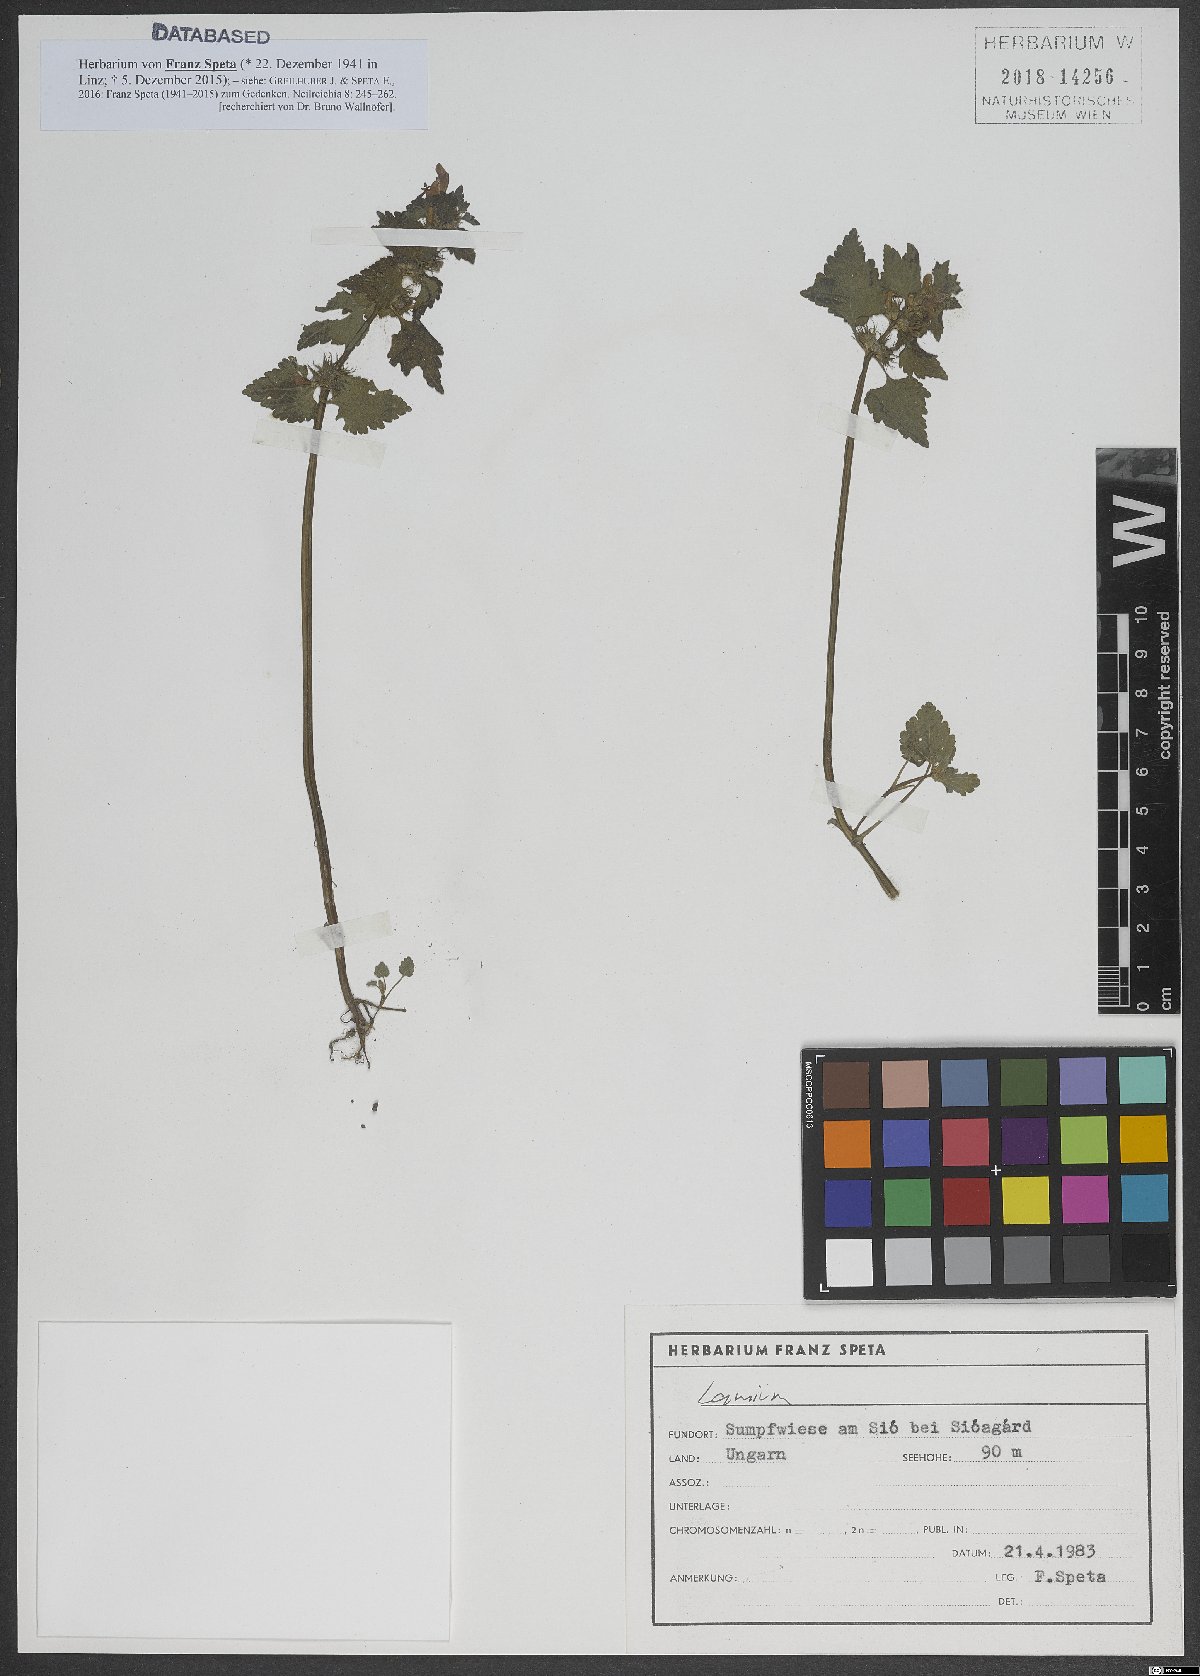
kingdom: Plantae
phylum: Tracheophyta
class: Magnoliopsida
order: Lamiales
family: Lamiaceae
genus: Lamium
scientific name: Lamium
